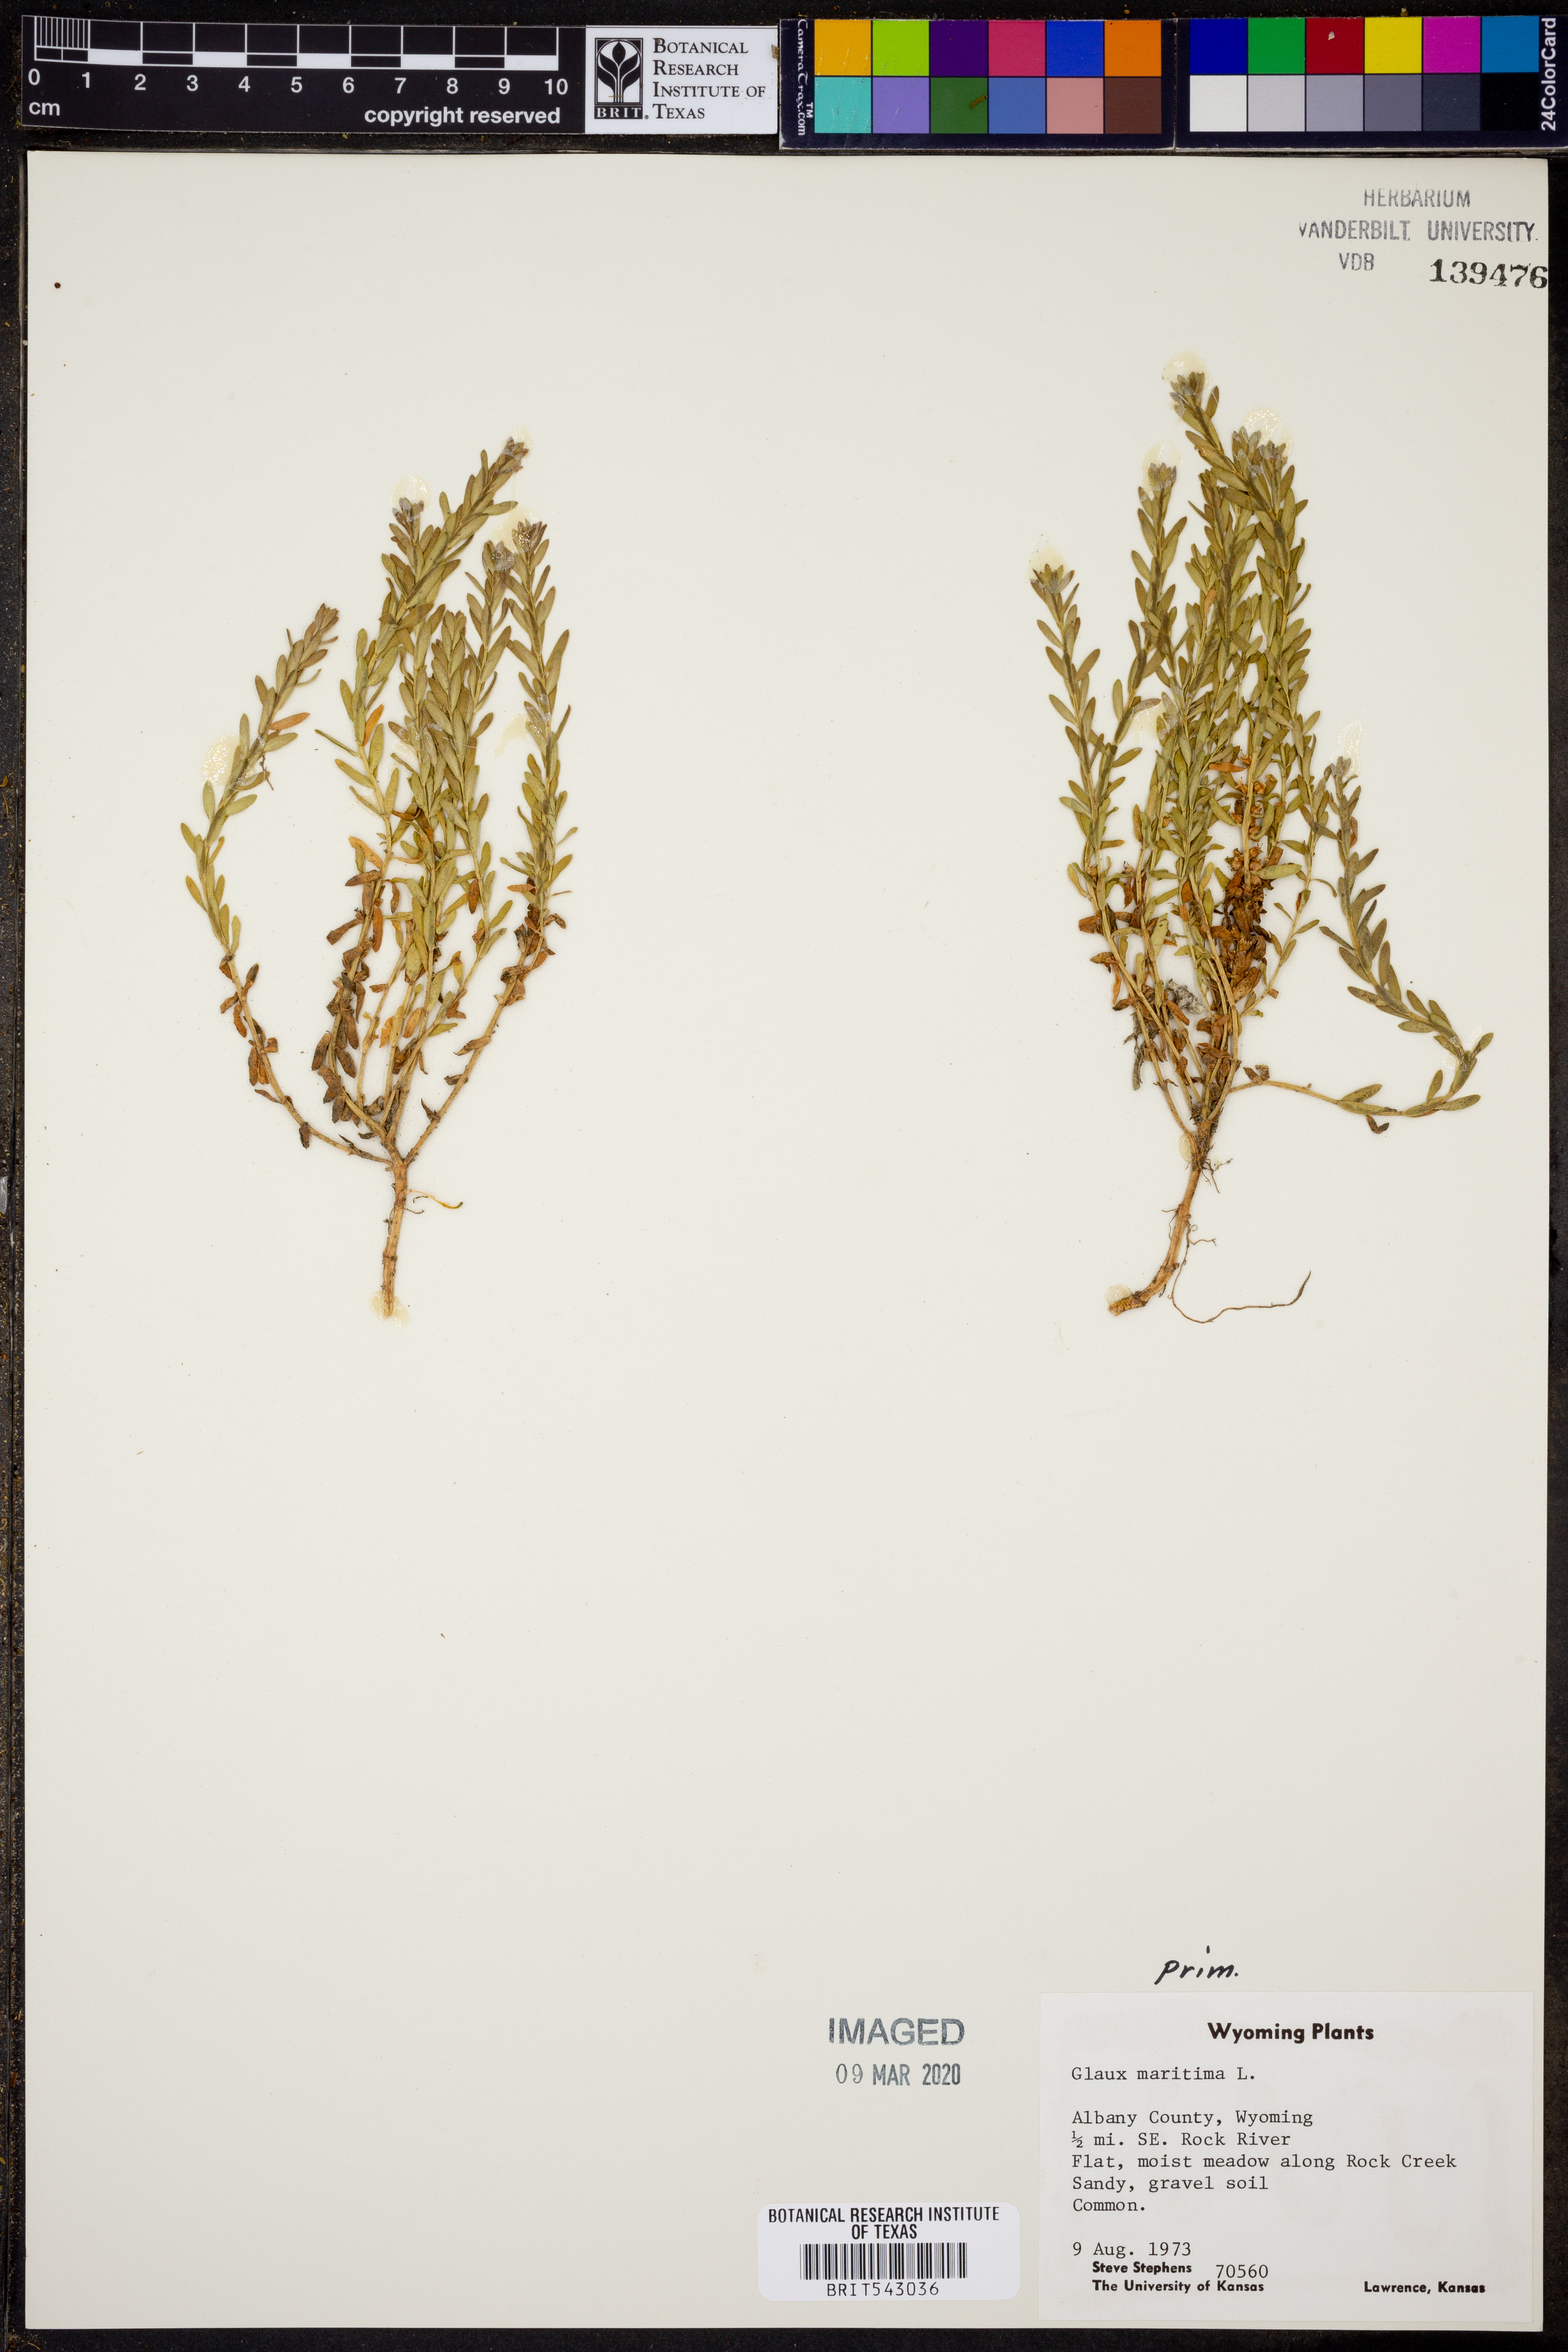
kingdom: Plantae
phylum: Tracheophyta
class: Magnoliopsida
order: Ericales
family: Primulaceae
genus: Lysimachia
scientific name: Lysimachia maritima
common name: Sea milkwort
